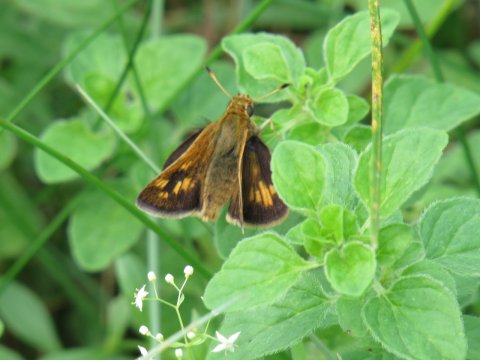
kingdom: Animalia
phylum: Arthropoda
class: Insecta
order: Lepidoptera
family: Hesperiidae
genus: Polites
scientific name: Polites coras
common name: Peck's Skipper
